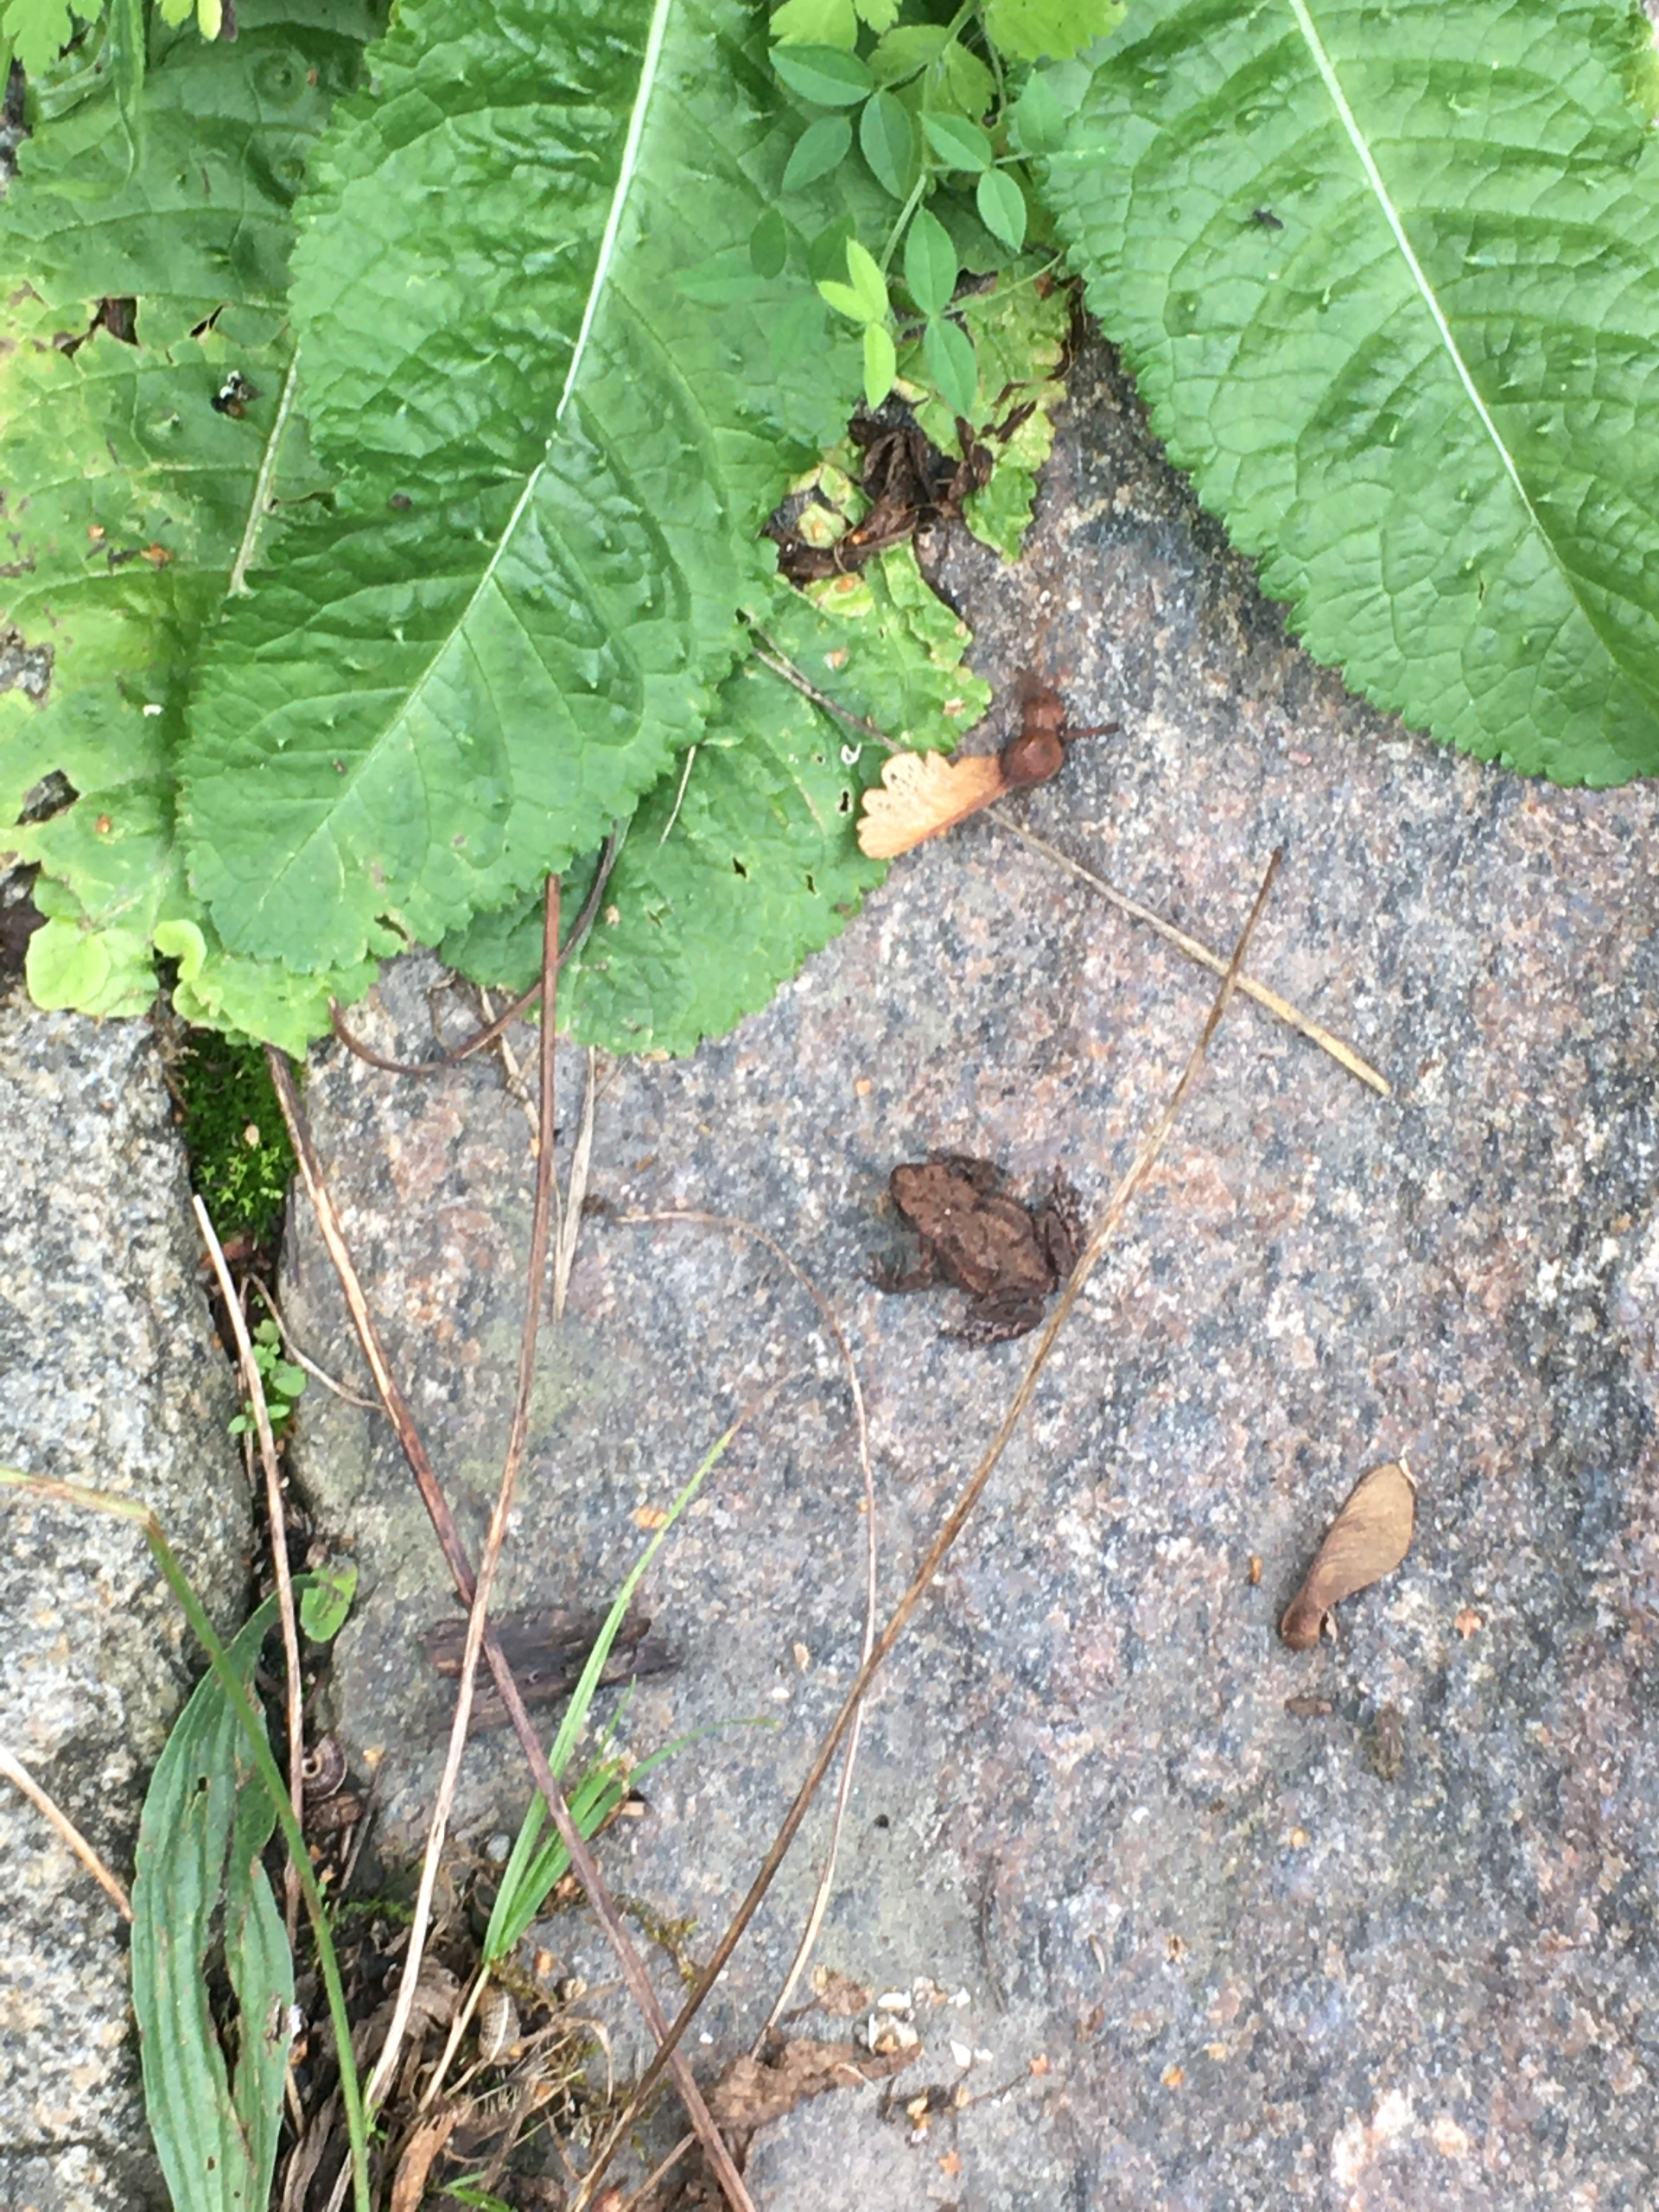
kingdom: Animalia
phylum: Chordata
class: Amphibia
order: Anura
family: Bufonidae
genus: Bufo
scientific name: Bufo bufo
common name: Skrubtudse
